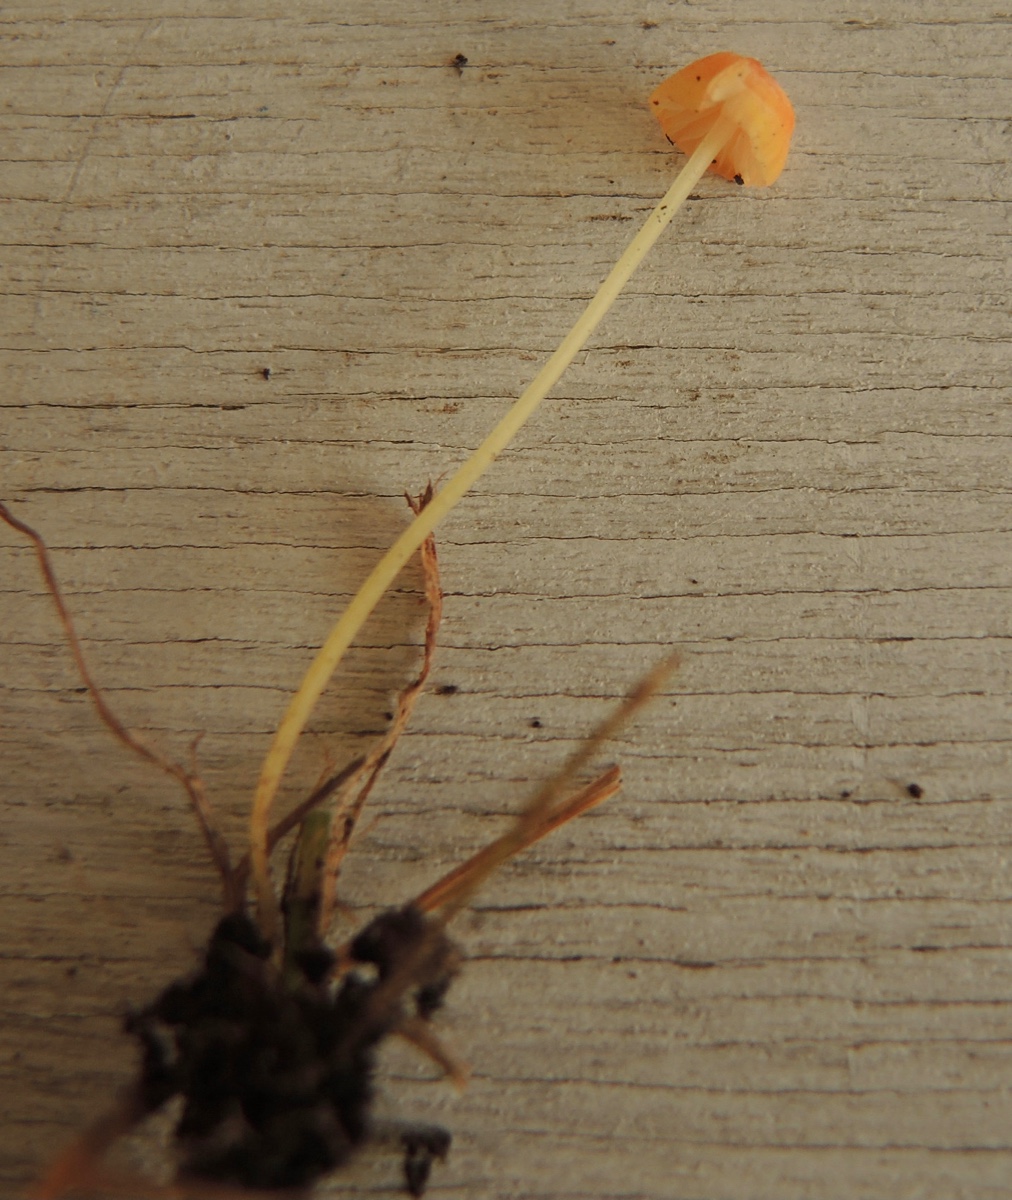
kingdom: Fungi
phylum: Basidiomycota
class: Agaricomycetes
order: Agaricales
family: Mycenaceae
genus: Mycena
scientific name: Mycena acicula
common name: orange huesvamp
